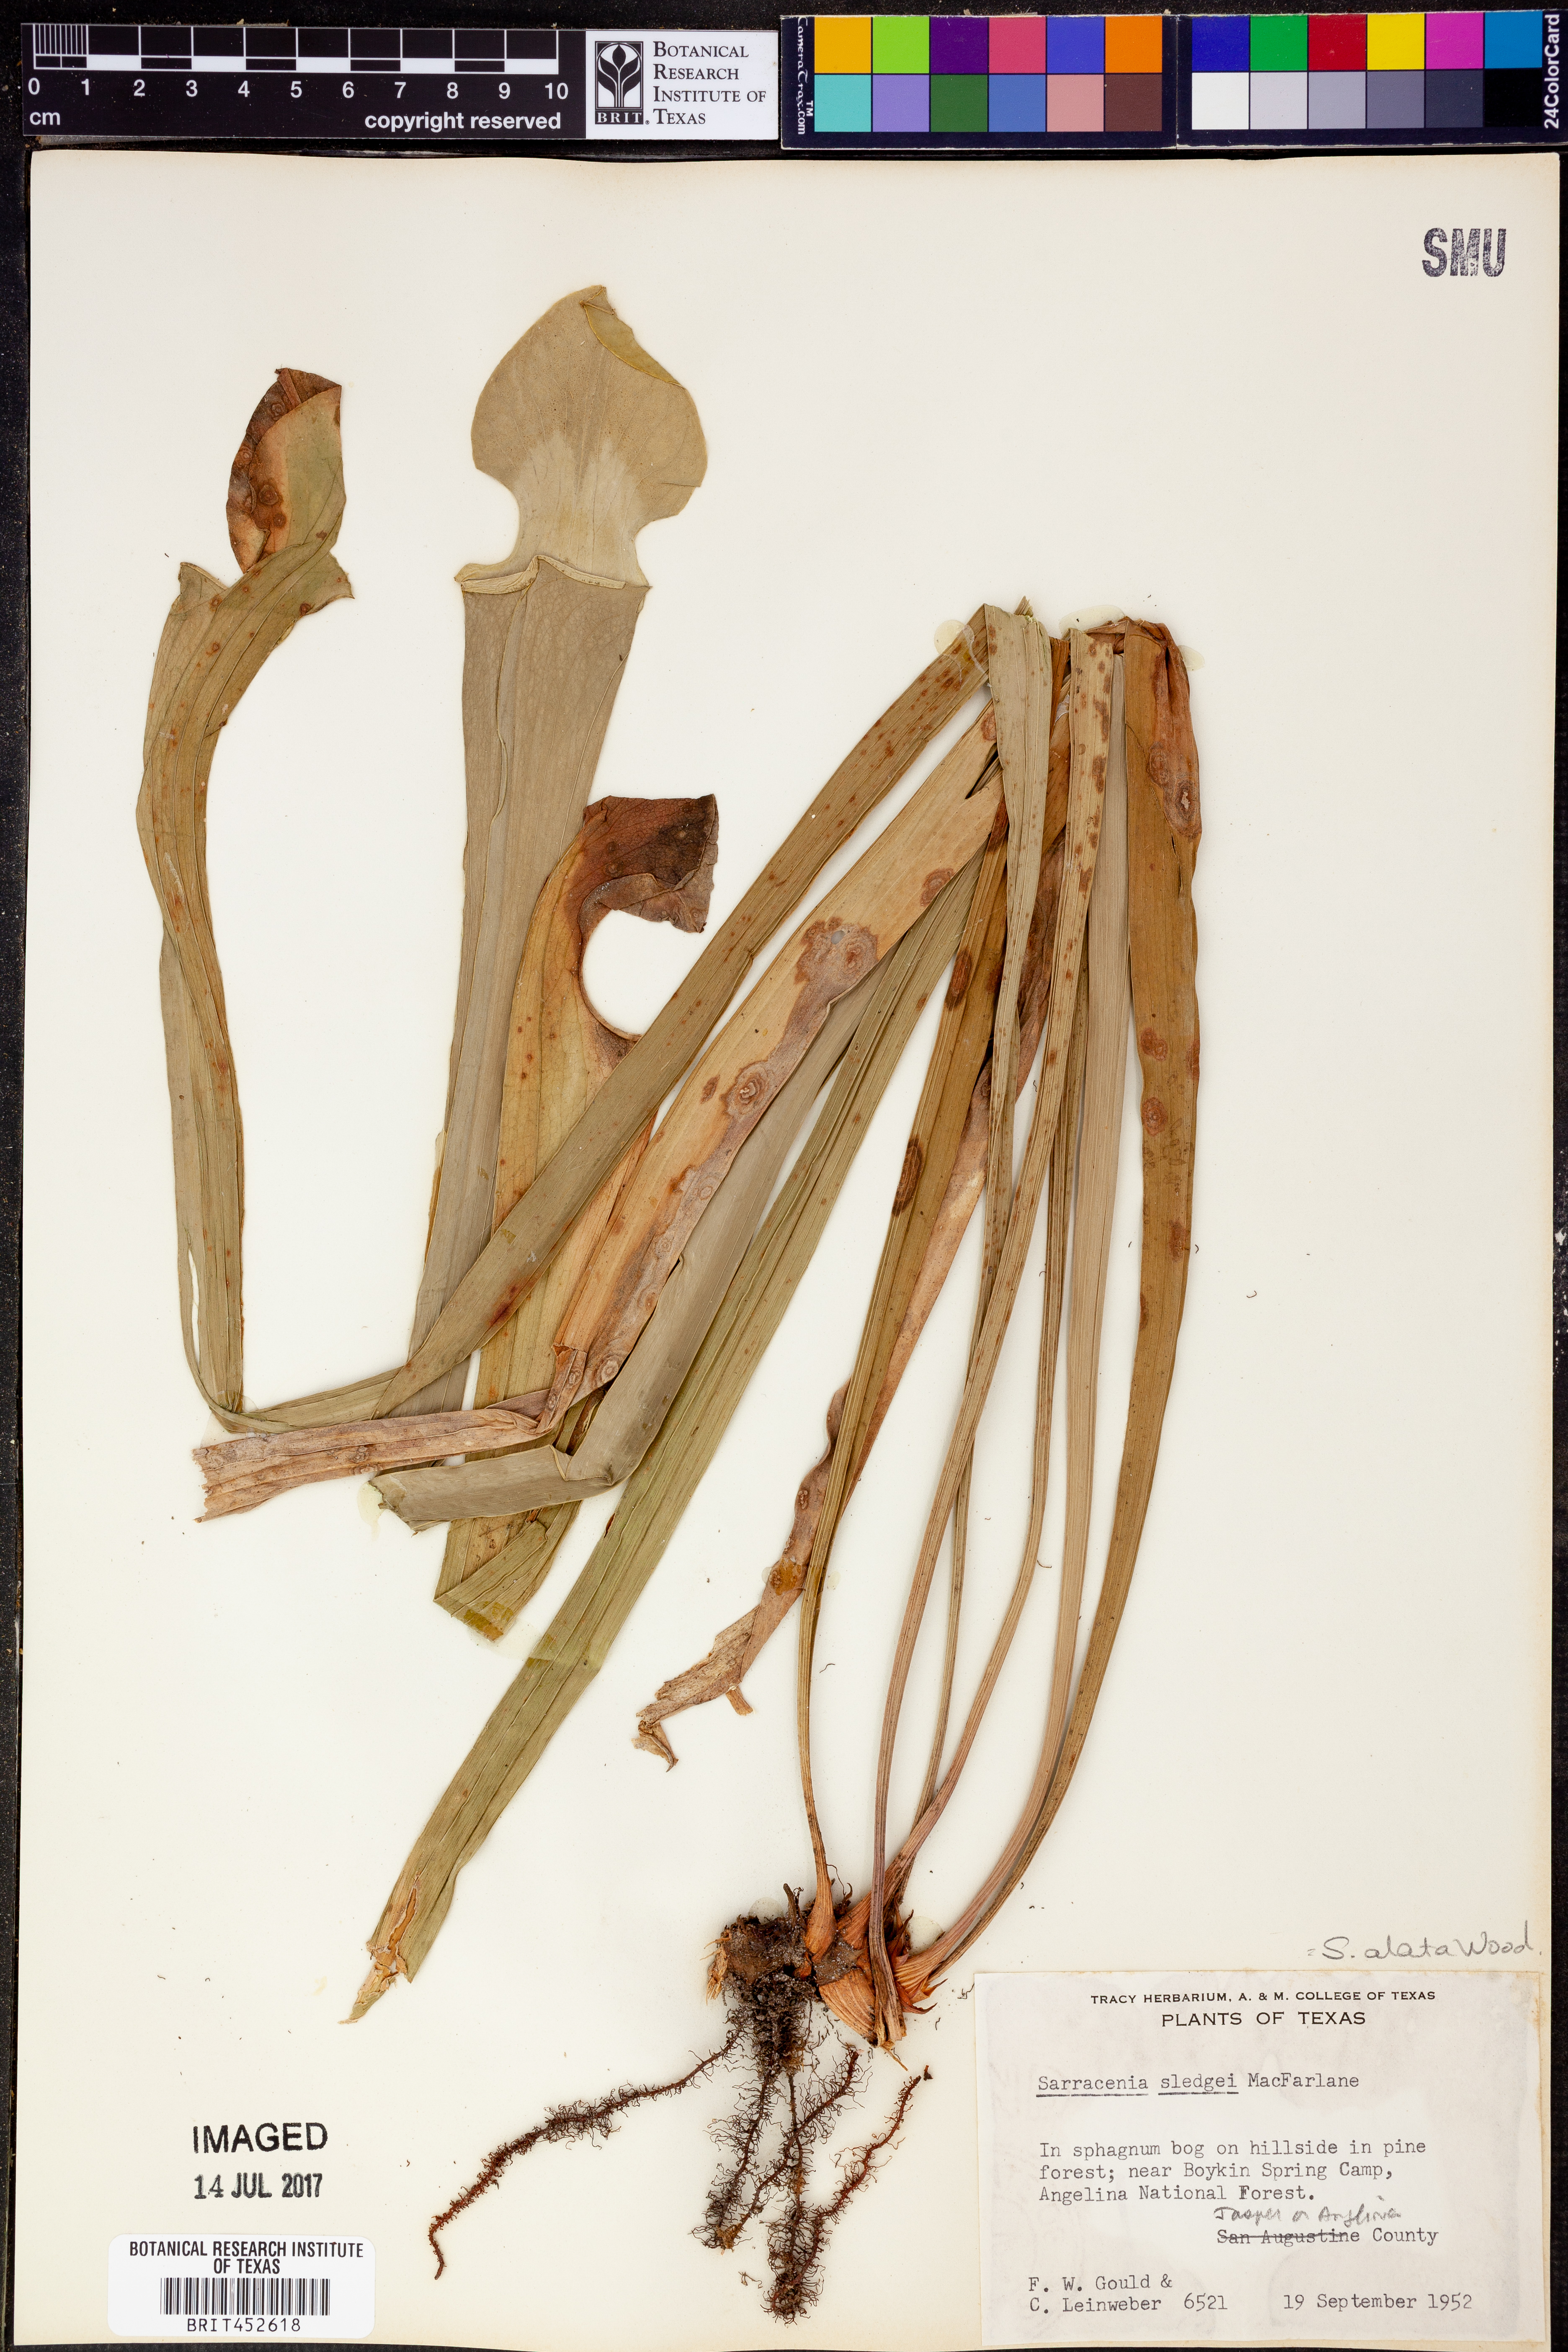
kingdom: Plantae
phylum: Tracheophyta
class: Magnoliopsida
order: Ericales
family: Sarraceniaceae
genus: Sarracenia
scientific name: Sarracenia alata
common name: Yellow trumpets
